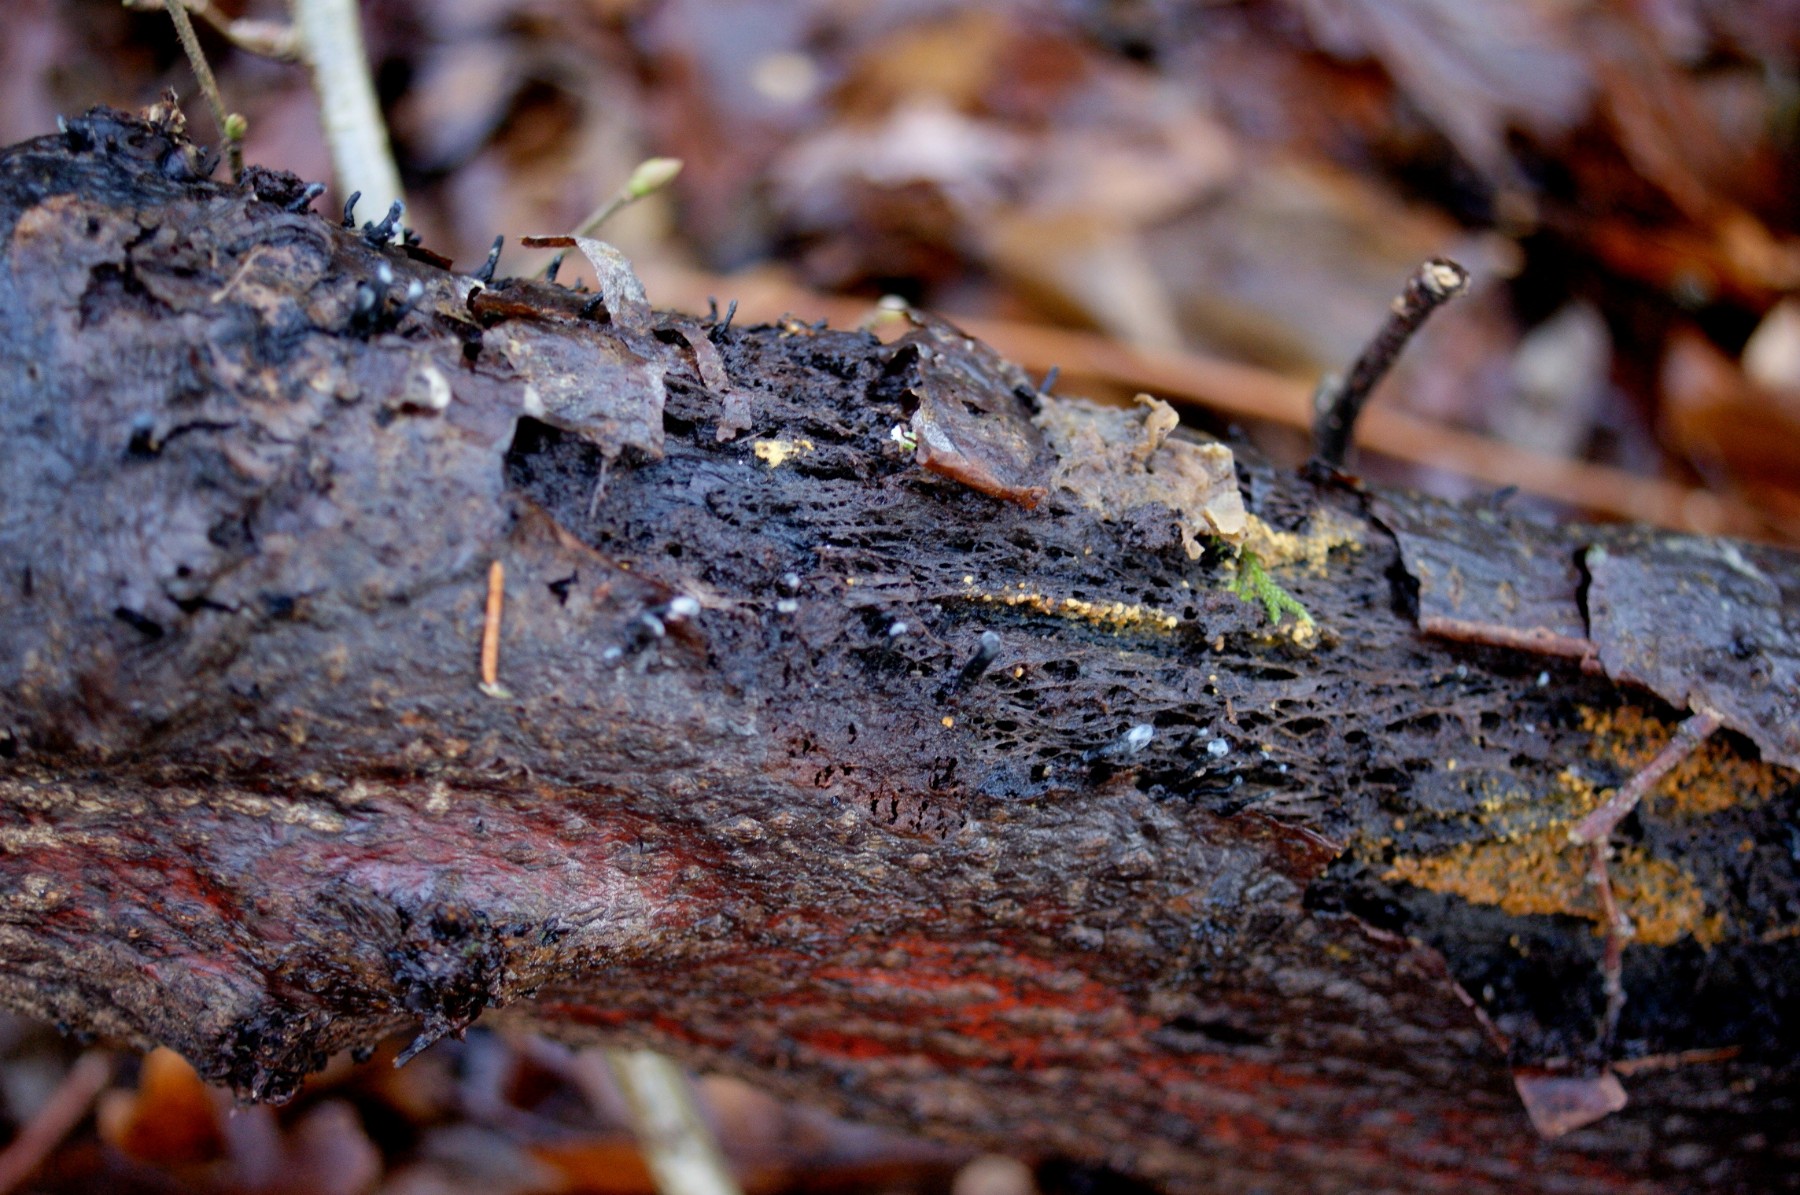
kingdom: Fungi
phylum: Ascomycota
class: Leotiomycetes
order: Helotiales
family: Bulgariaceae
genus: Holwaya
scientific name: Holwaya mucida
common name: lindeskive
